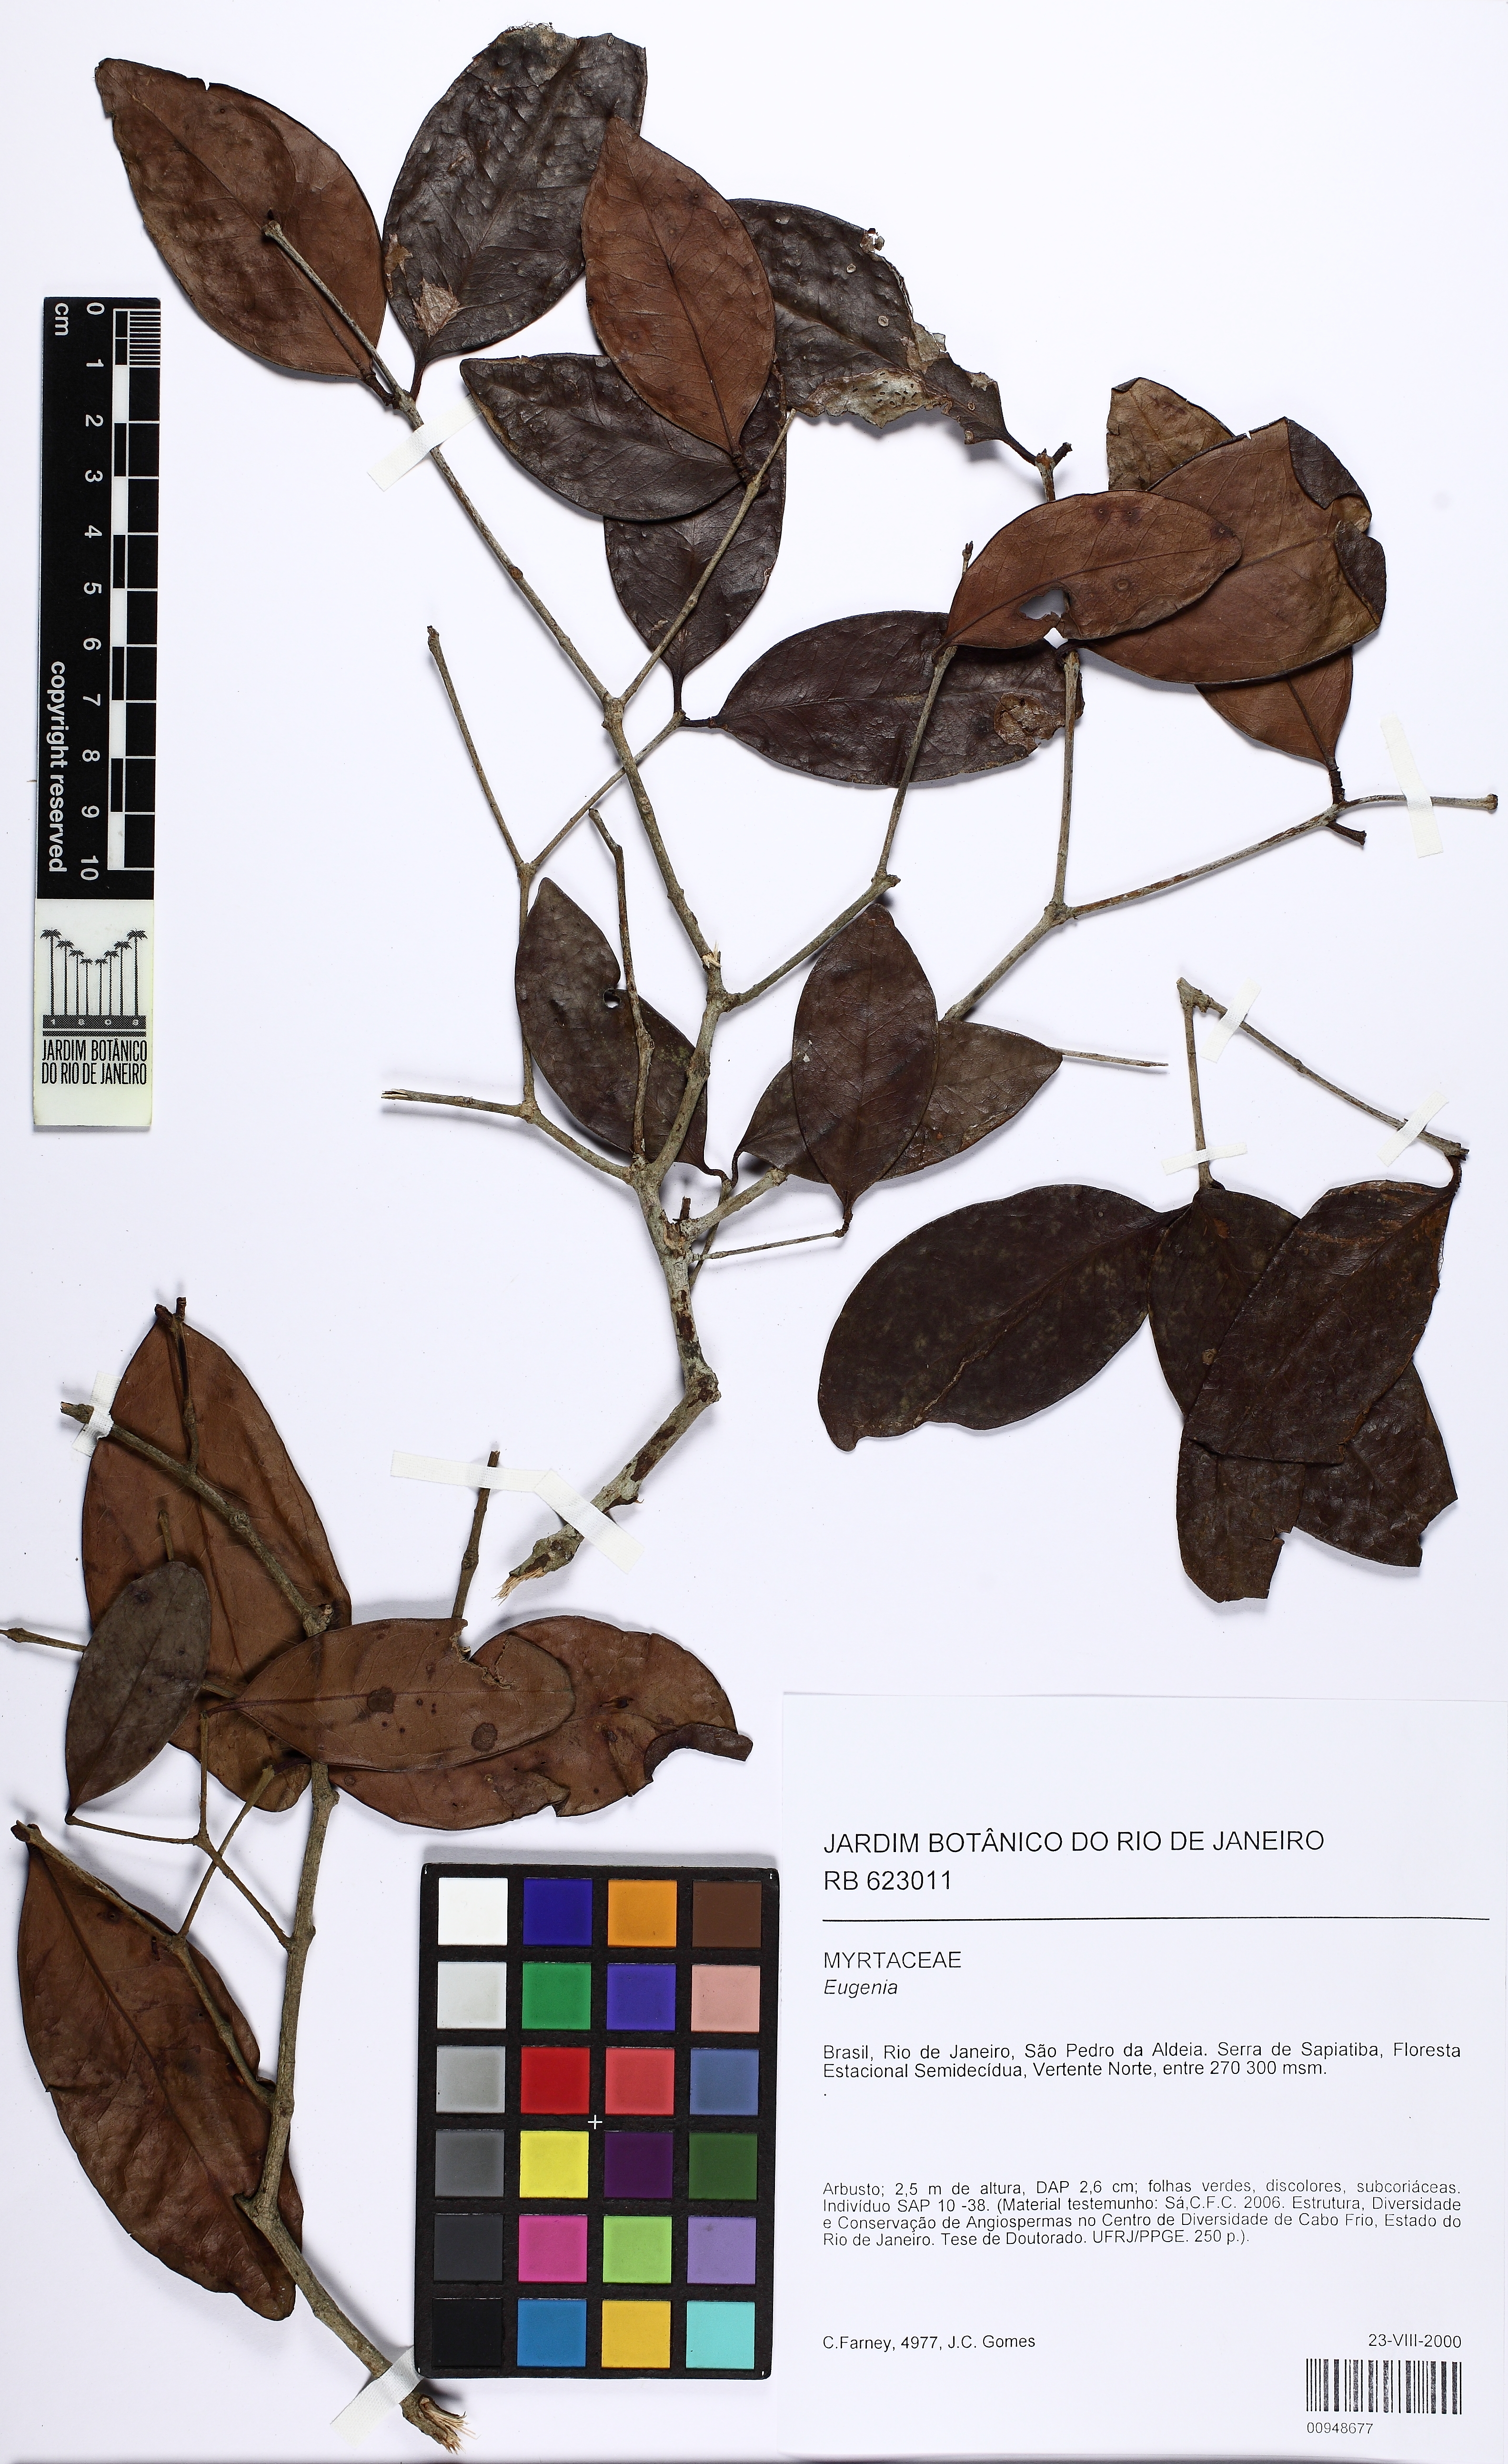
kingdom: Plantae
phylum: Tracheophyta
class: Magnoliopsida
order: Myrtales
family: Myrtaceae
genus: Eugenia
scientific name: Eugenia
